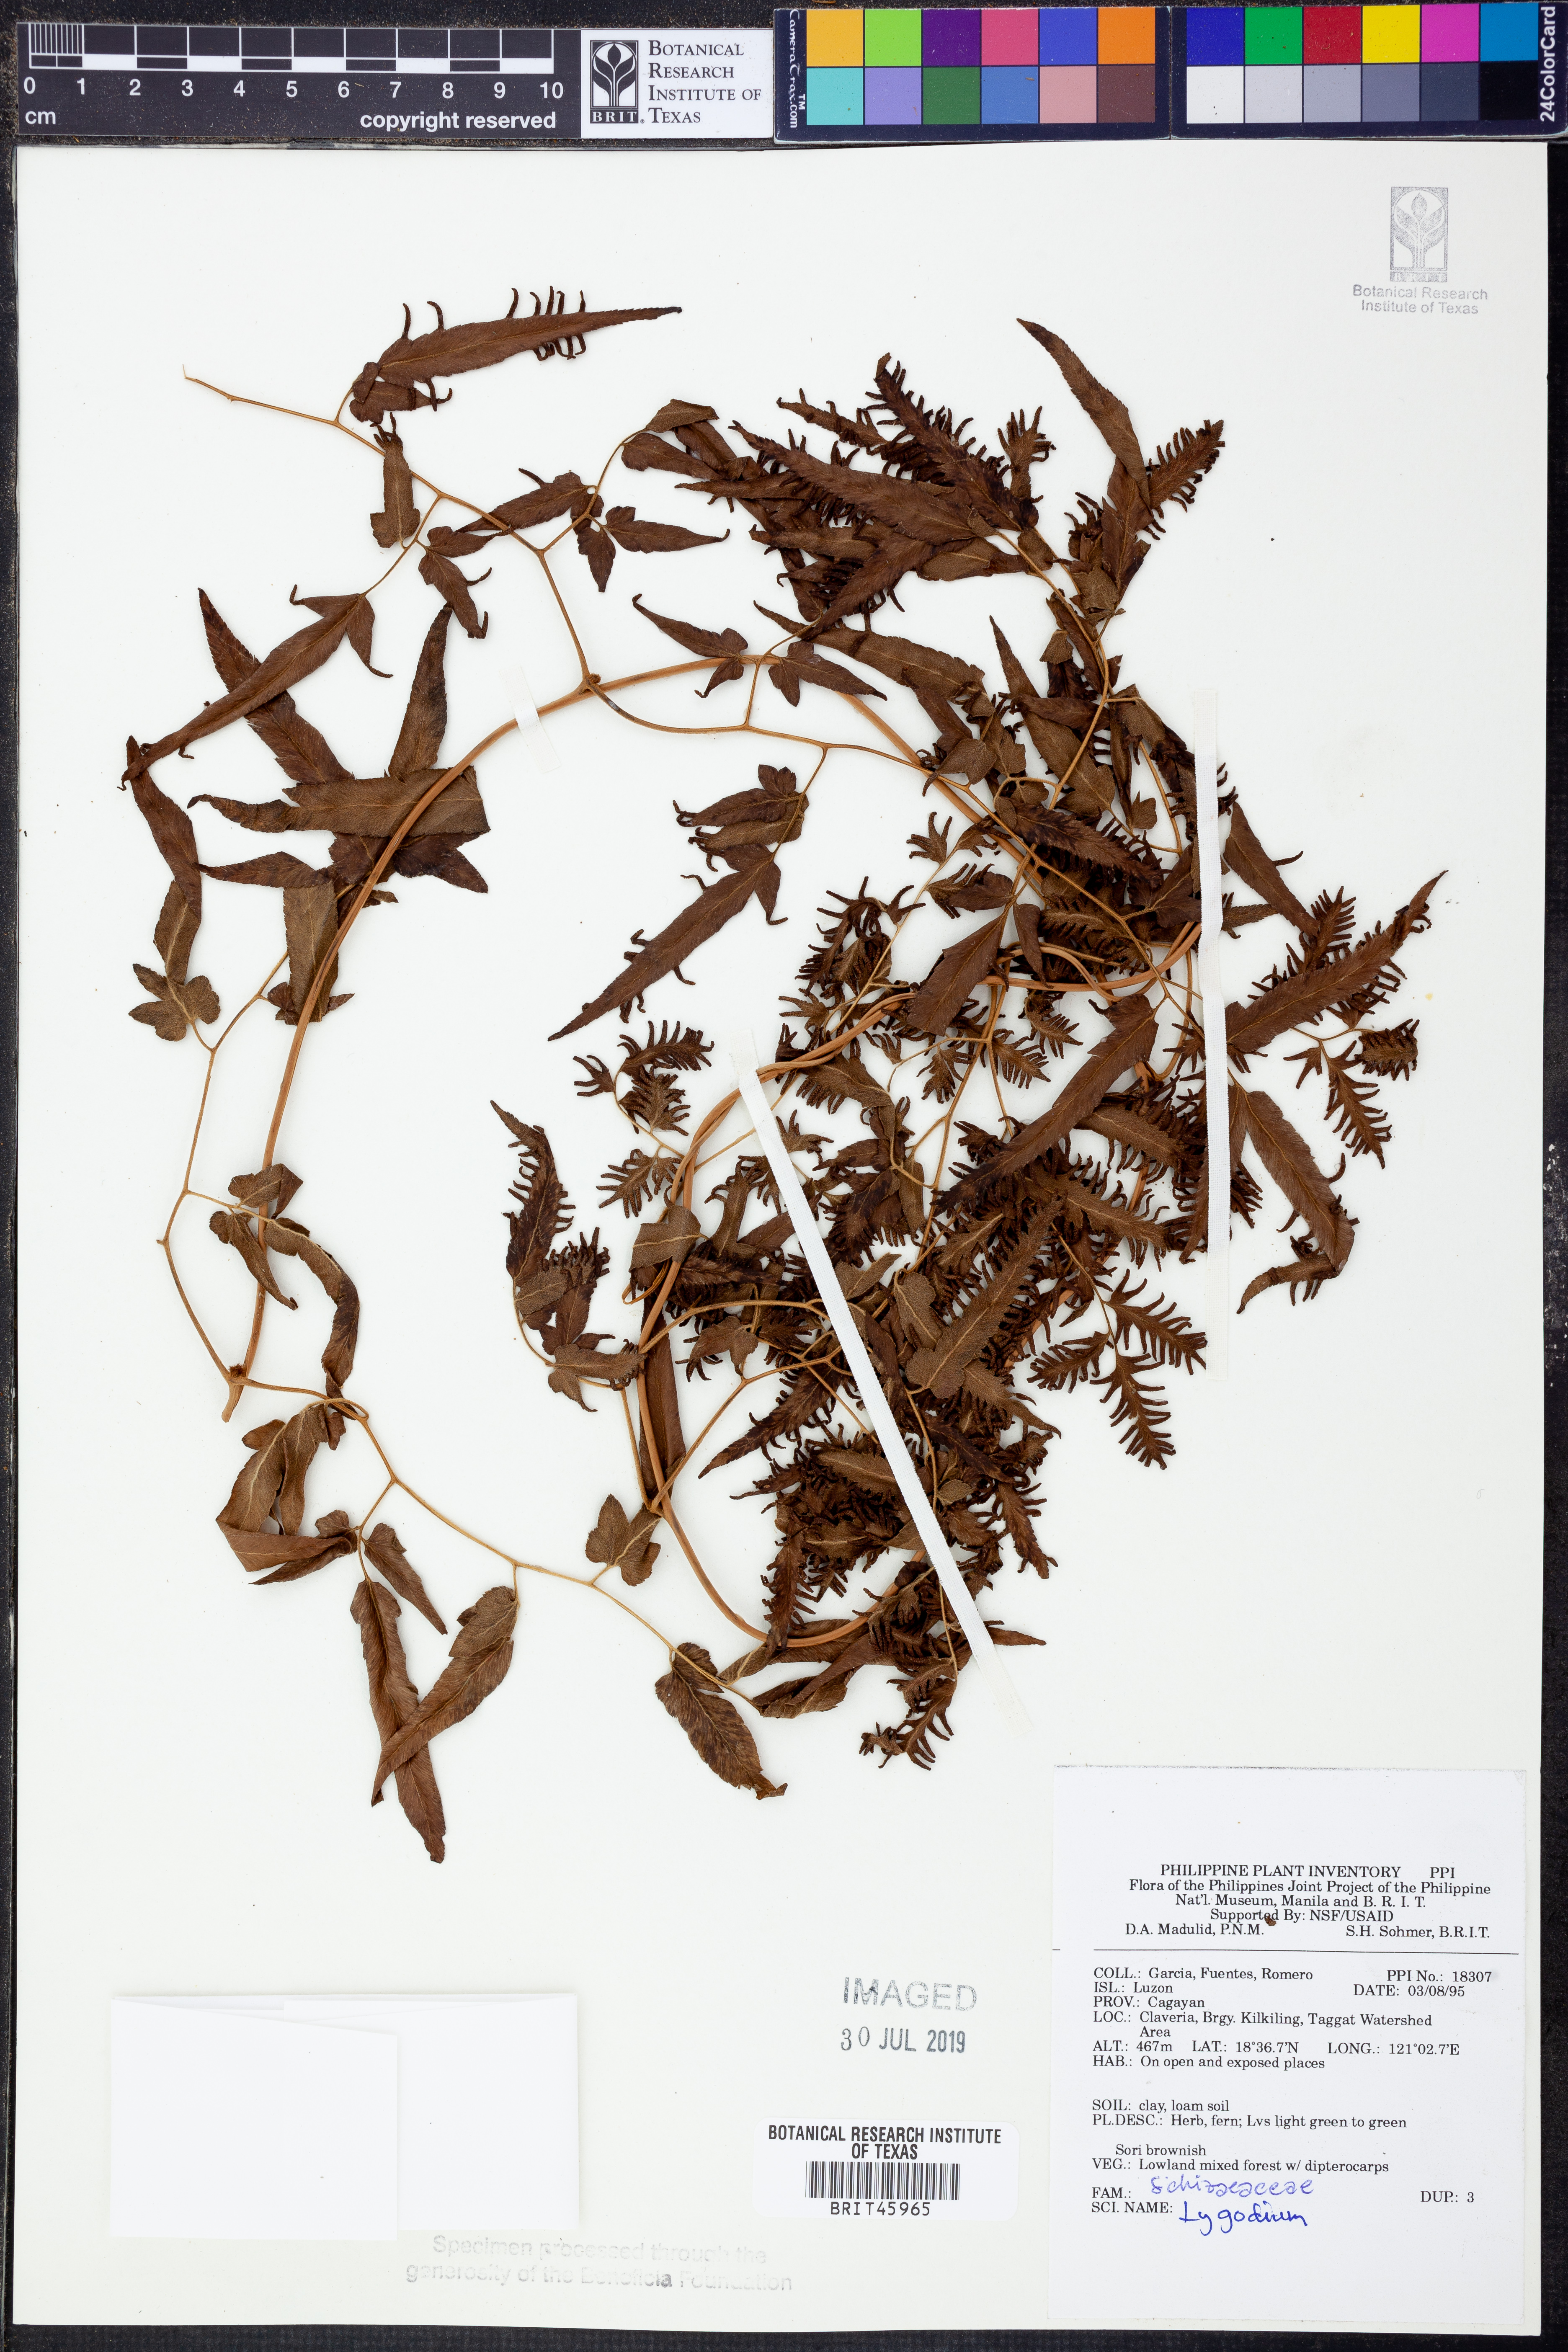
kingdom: Plantae
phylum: Tracheophyta
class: Polypodiopsida
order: Schizaeales
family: Lygodiaceae
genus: Lygodium
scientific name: Lygodium
